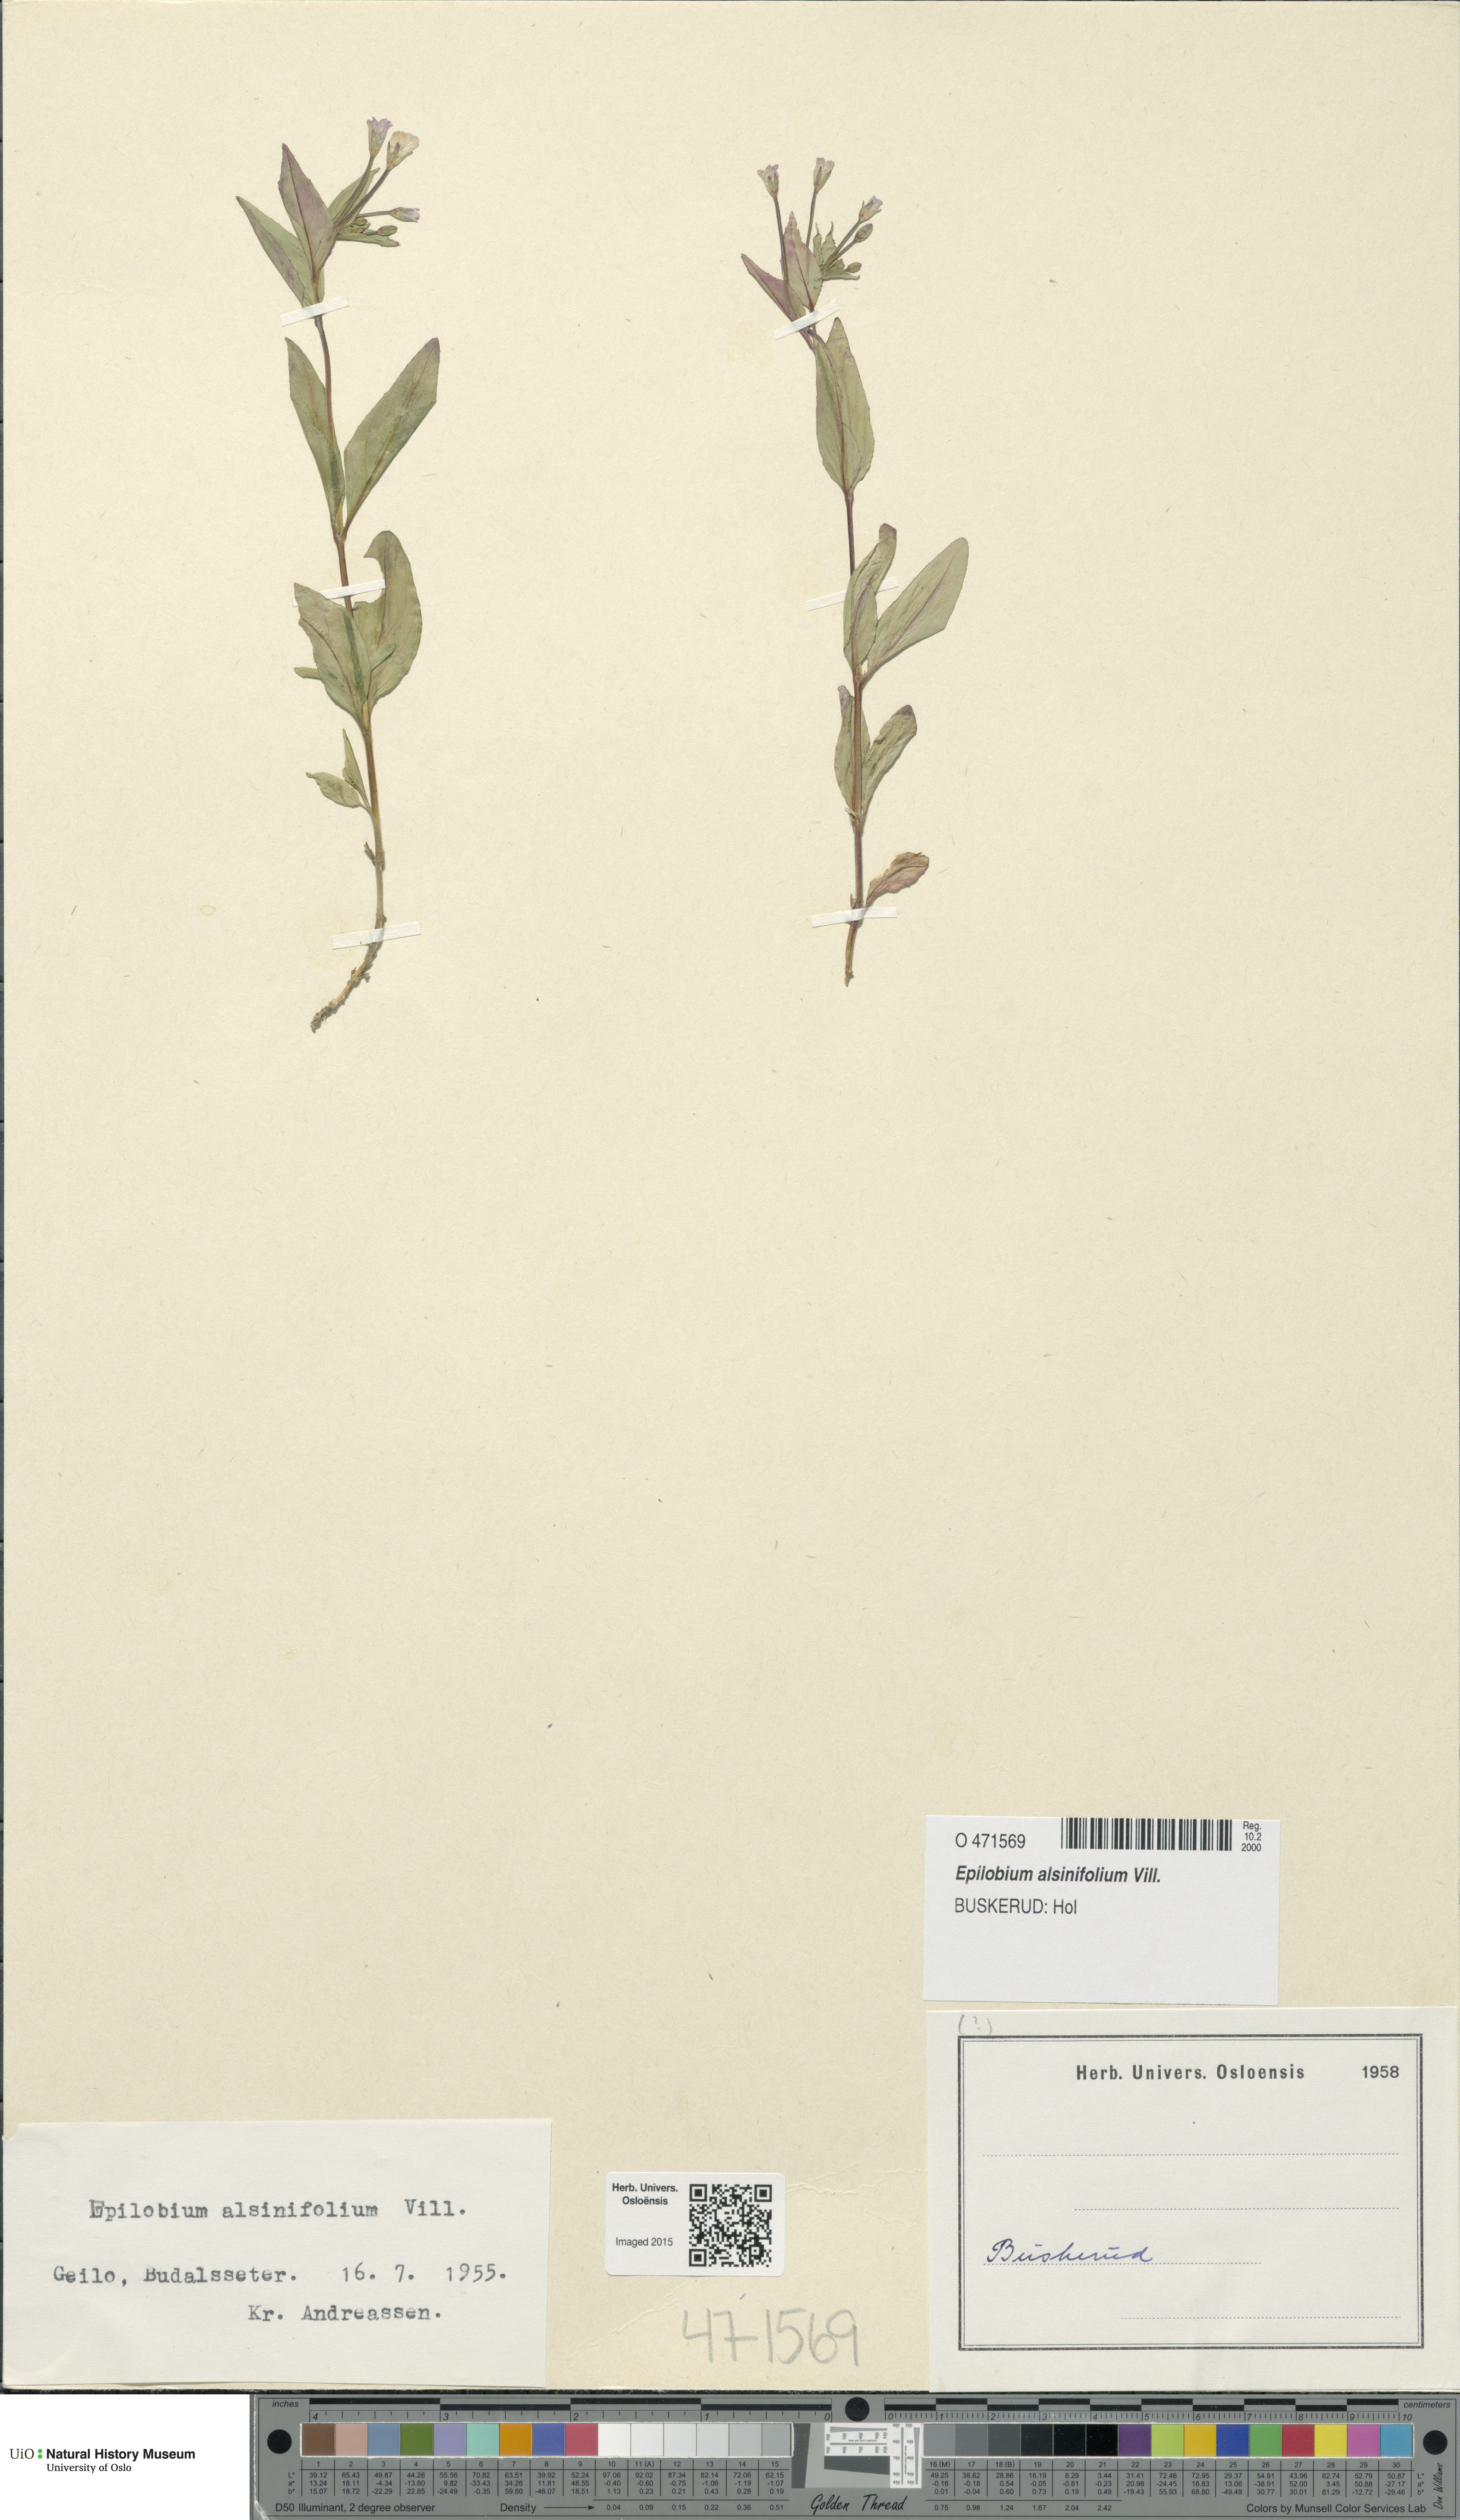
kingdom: Plantae
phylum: Tracheophyta
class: Magnoliopsida
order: Myrtales
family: Onagraceae
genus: Epilobium
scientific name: Epilobium alsinifolium
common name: Chickweed willowherb
